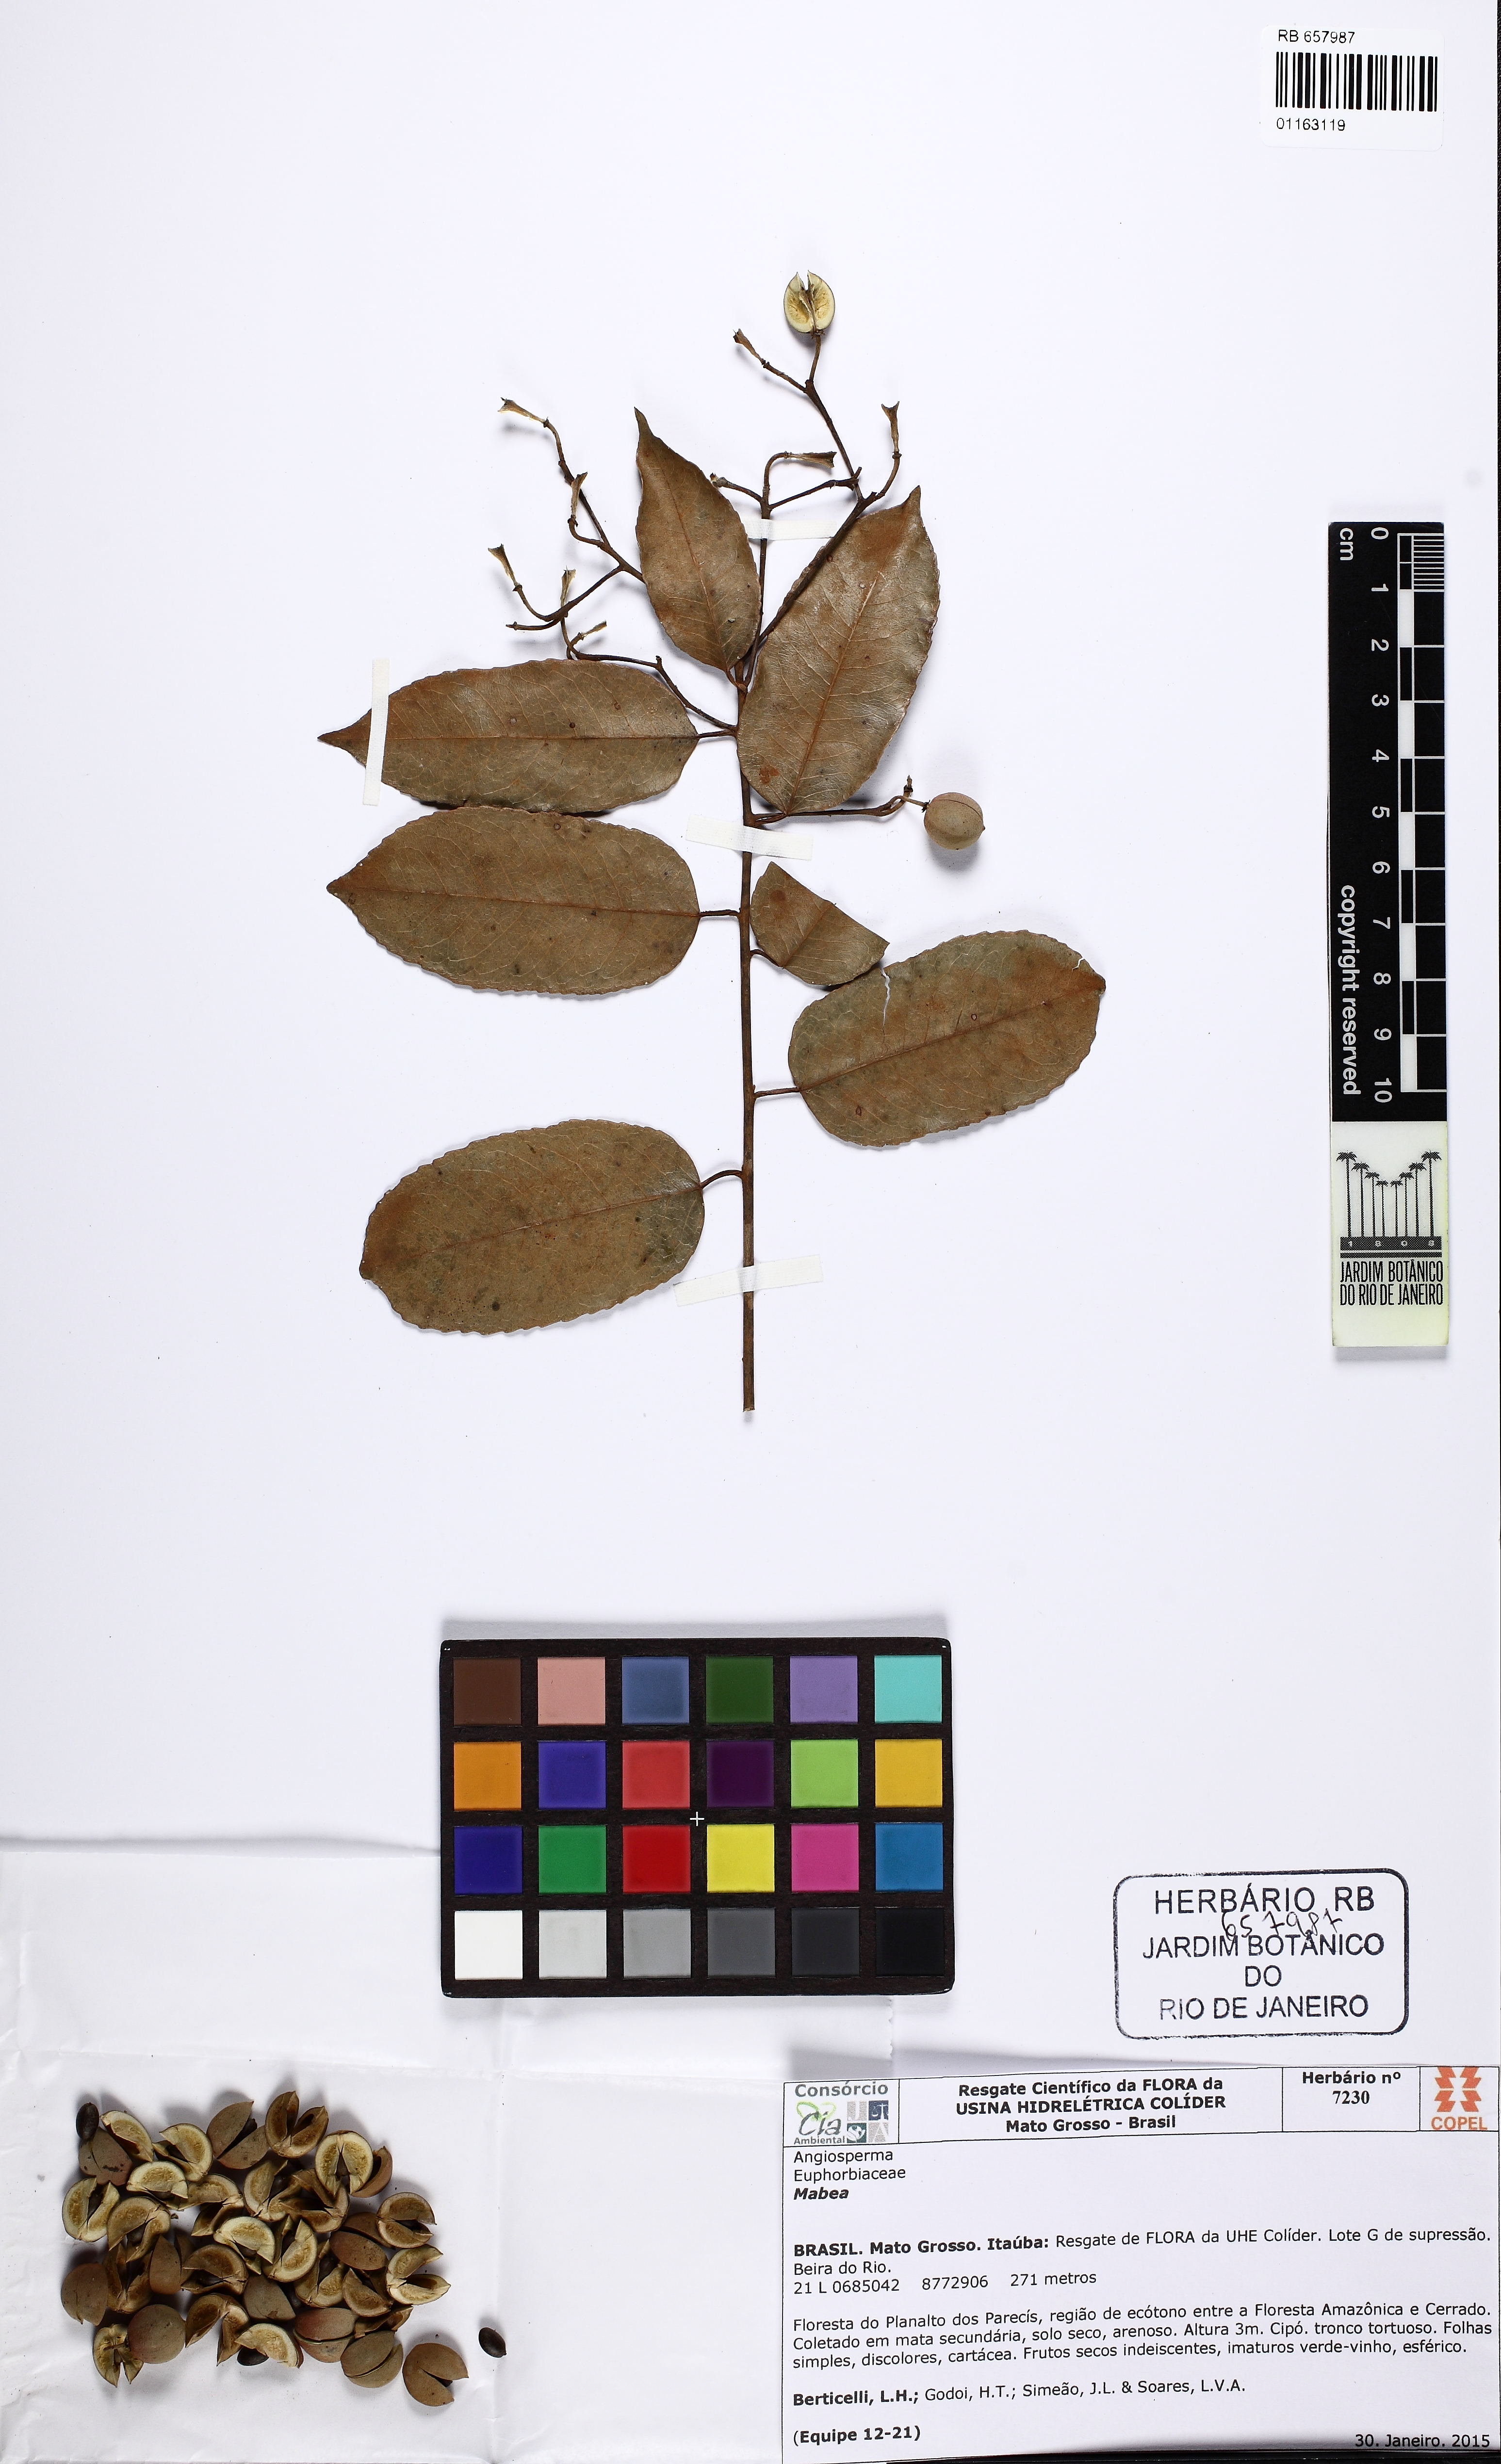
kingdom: Plantae
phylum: Tracheophyta
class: Magnoliopsida
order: Malpighiales
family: Euphorbiaceae
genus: Mabea
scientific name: Mabea
